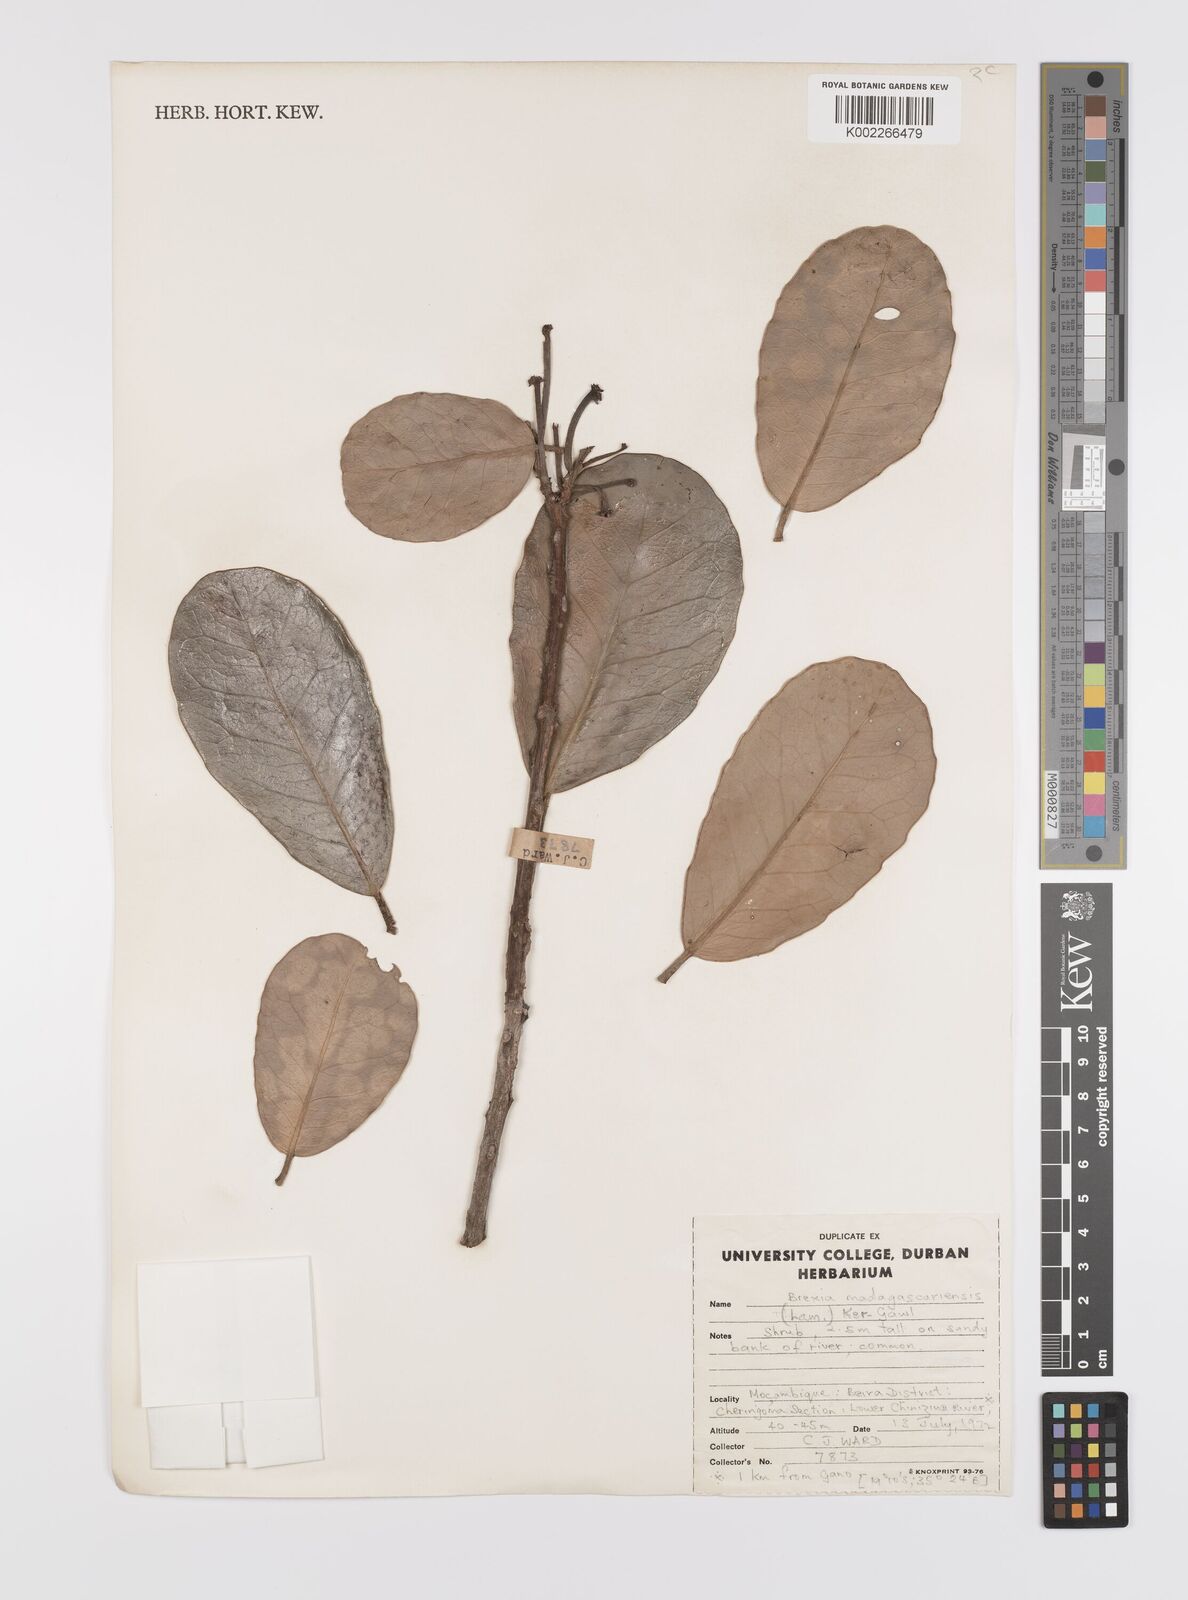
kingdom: Plantae
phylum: Tracheophyta
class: Magnoliopsida
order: Celastrales
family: Celastraceae
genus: Brexia
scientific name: Brexia madagascariensis
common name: Brexia
